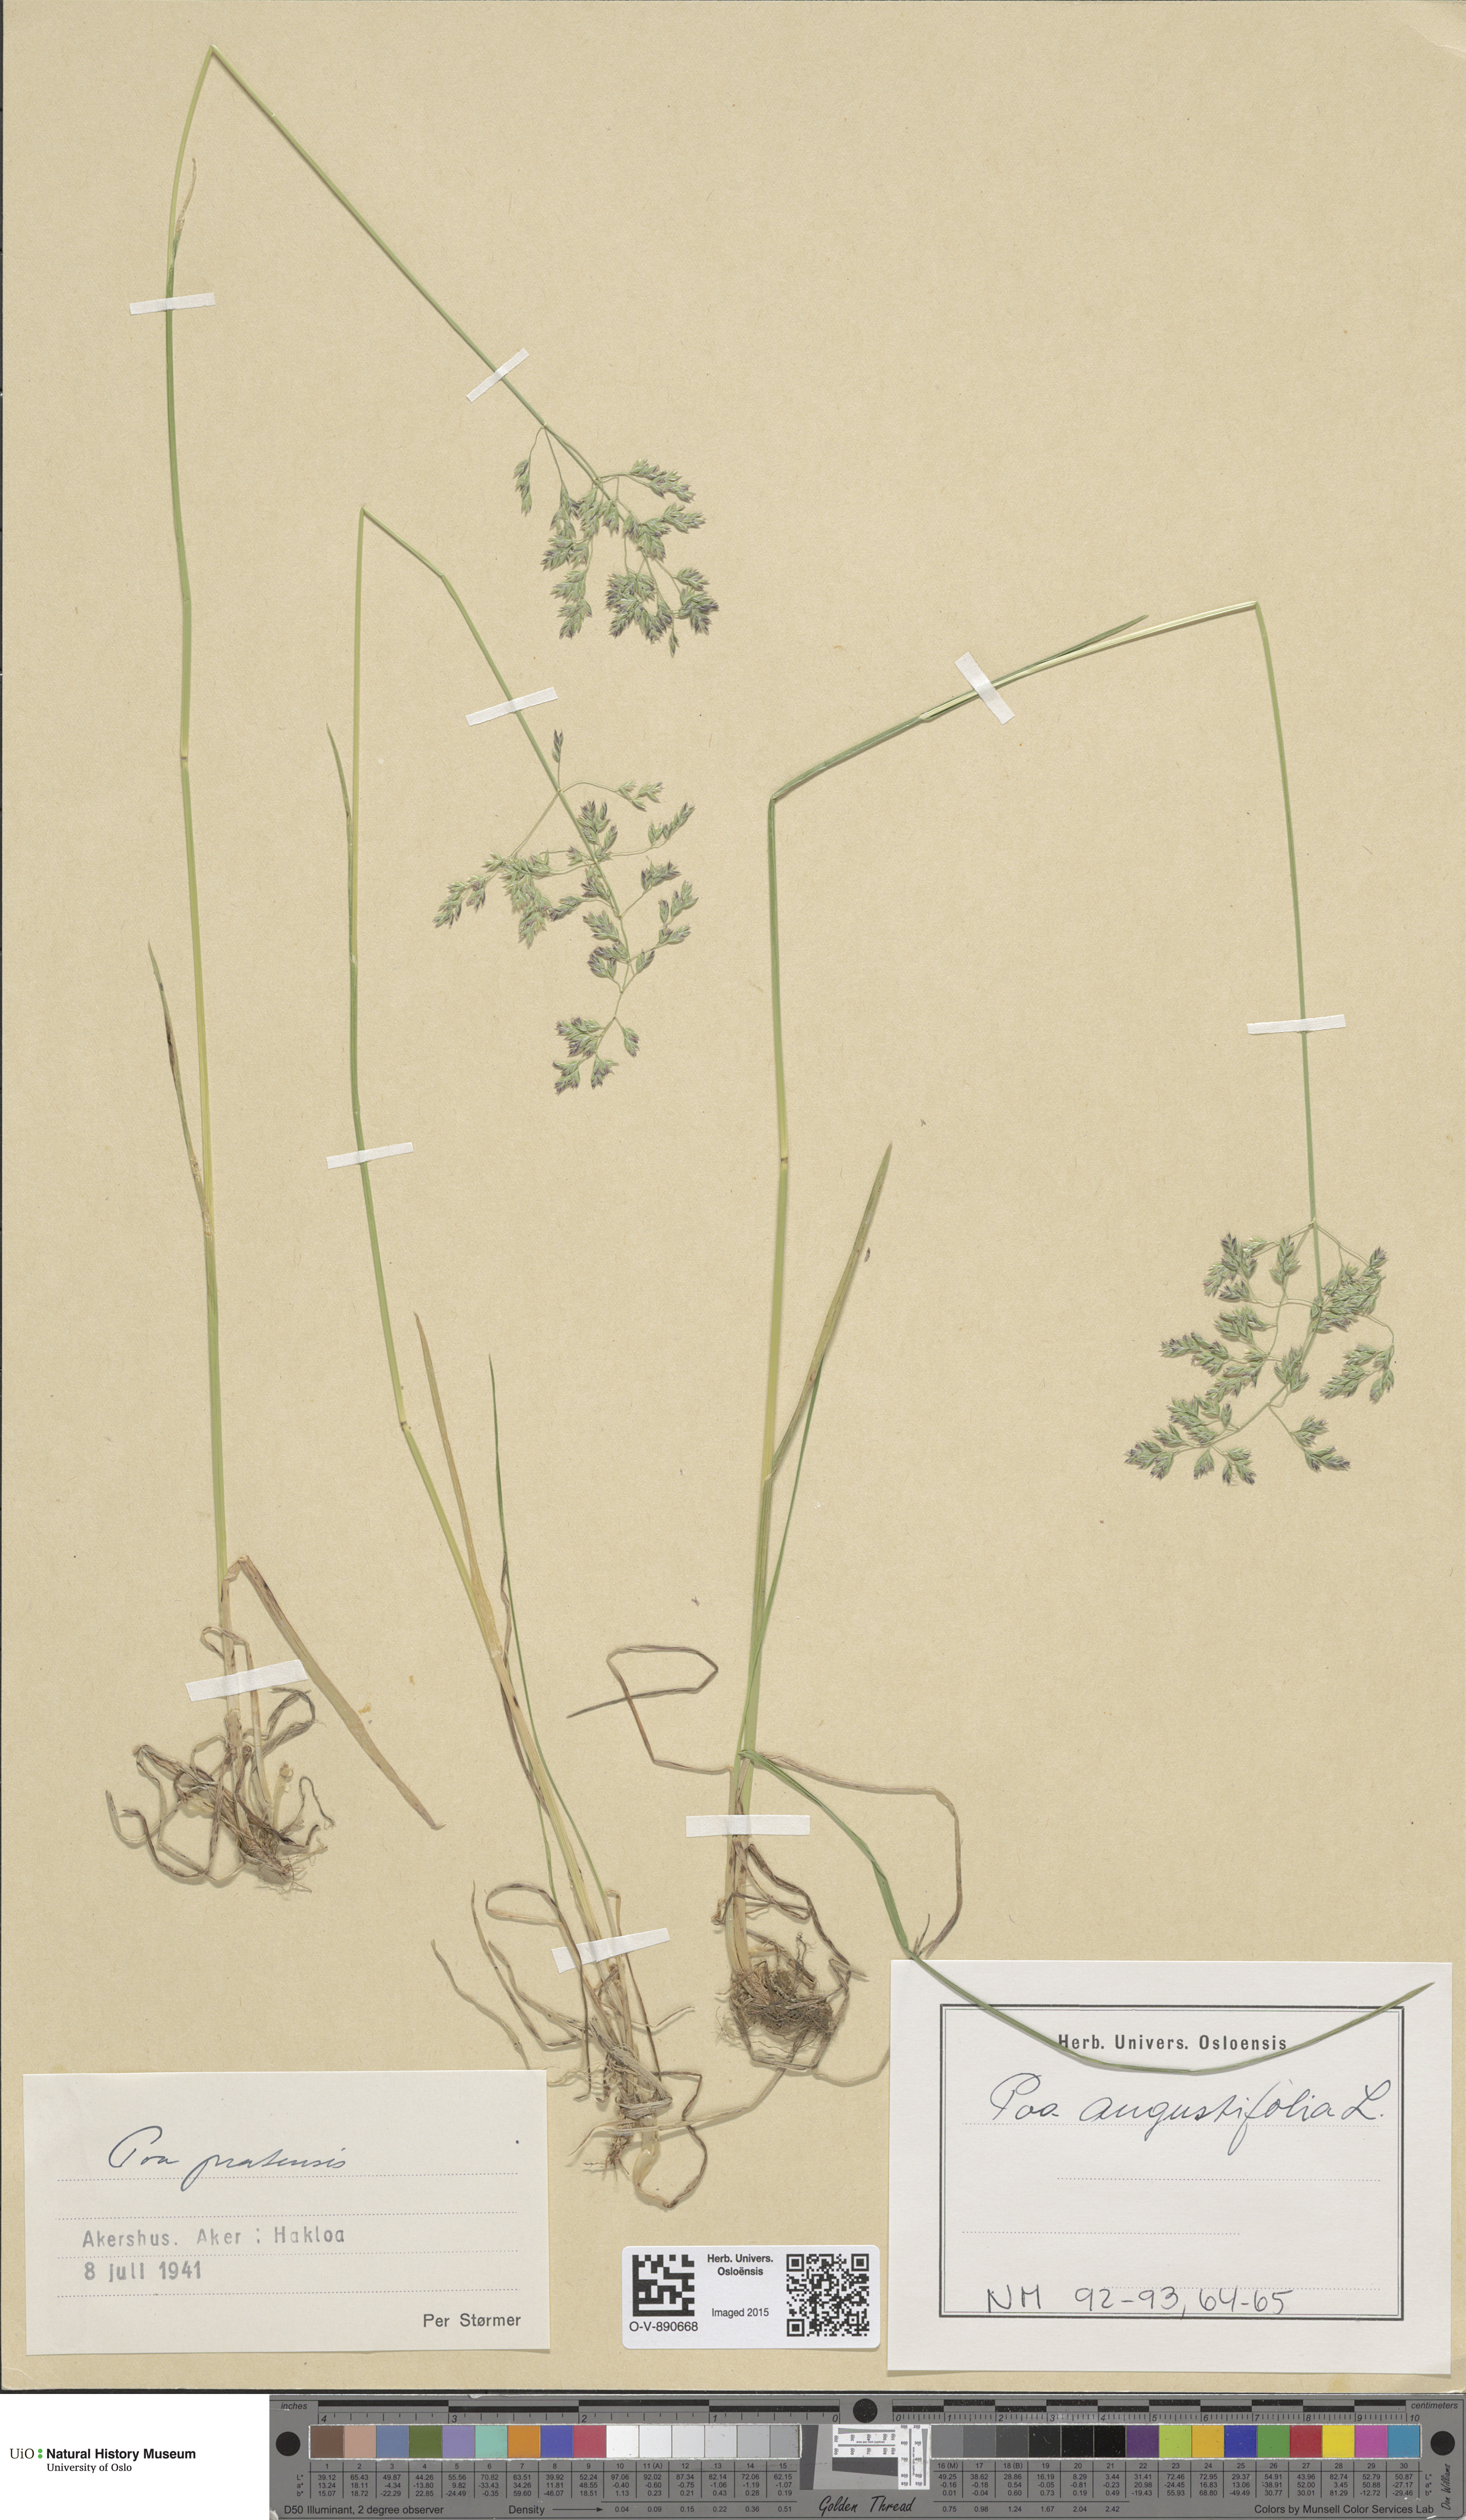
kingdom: Plantae
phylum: Tracheophyta
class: Liliopsida
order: Poales
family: Poaceae
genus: Poa
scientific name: Poa angustifolia
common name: Narrow-leaved meadow-grass
